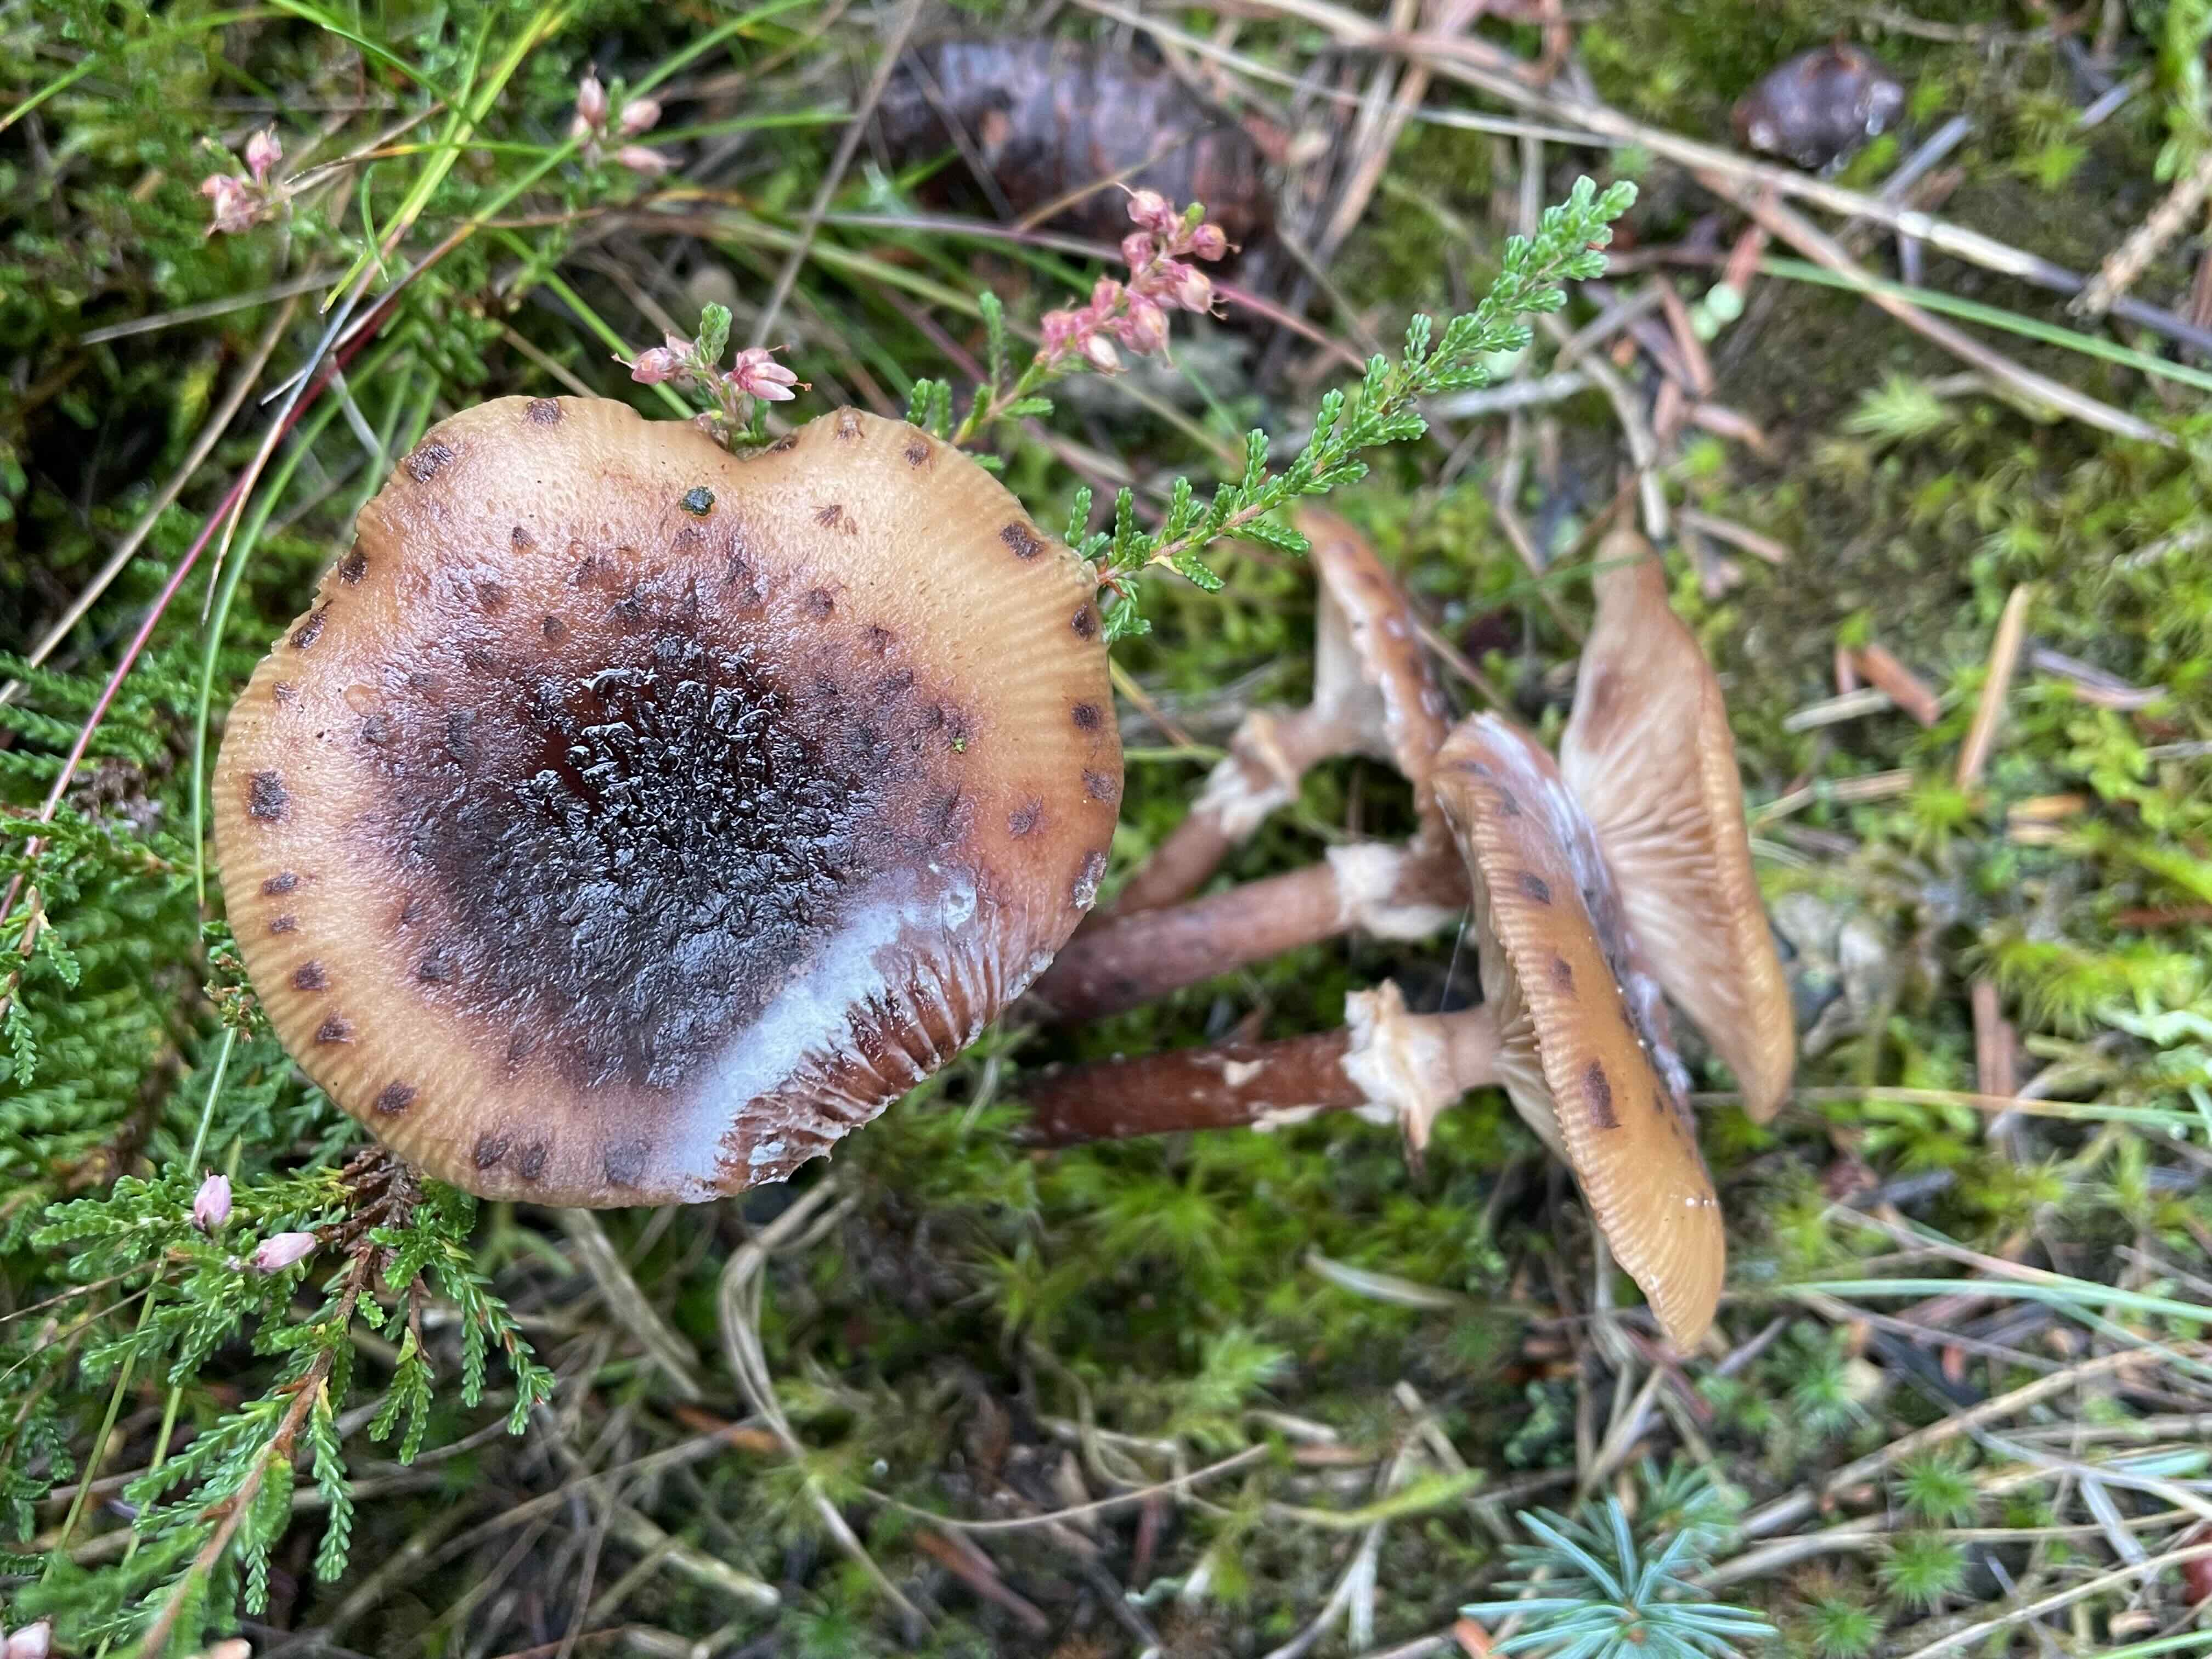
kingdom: Fungi
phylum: Basidiomycota
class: Agaricomycetes
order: Agaricales
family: Physalacriaceae
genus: Armillaria
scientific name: Armillaria ostoyae
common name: mørk honningsvamp
